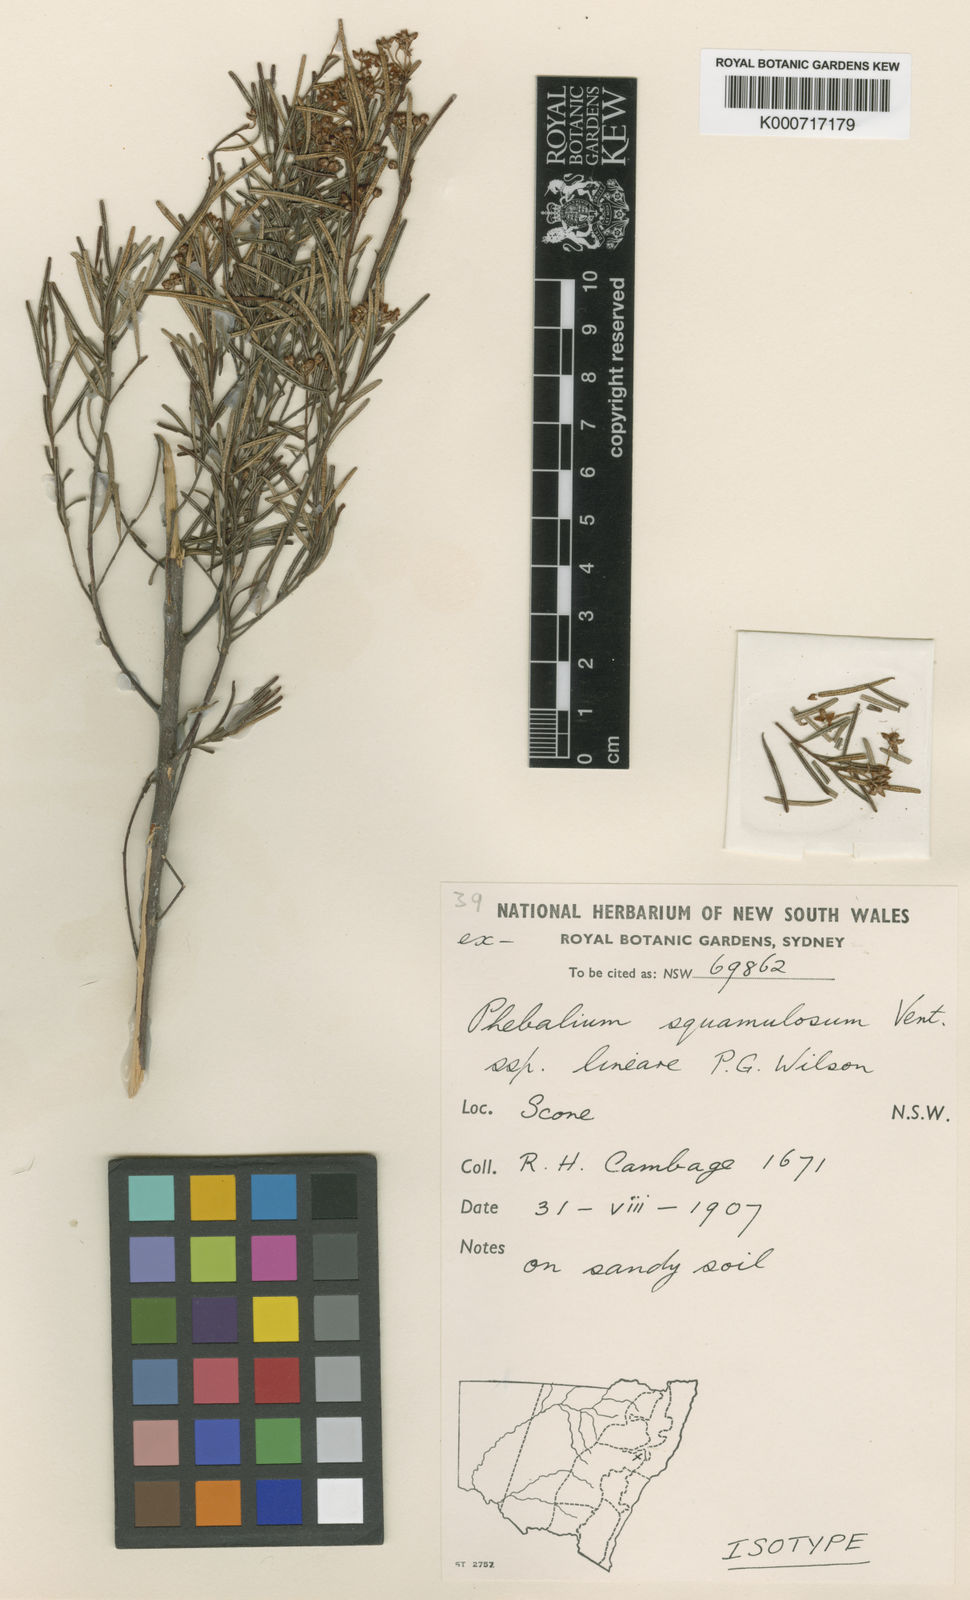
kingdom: Plantae
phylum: Tracheophyta
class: Magnoliopsida
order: Sapindales
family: Rutaceae
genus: Phebalium
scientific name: Phebalium squamulosum
